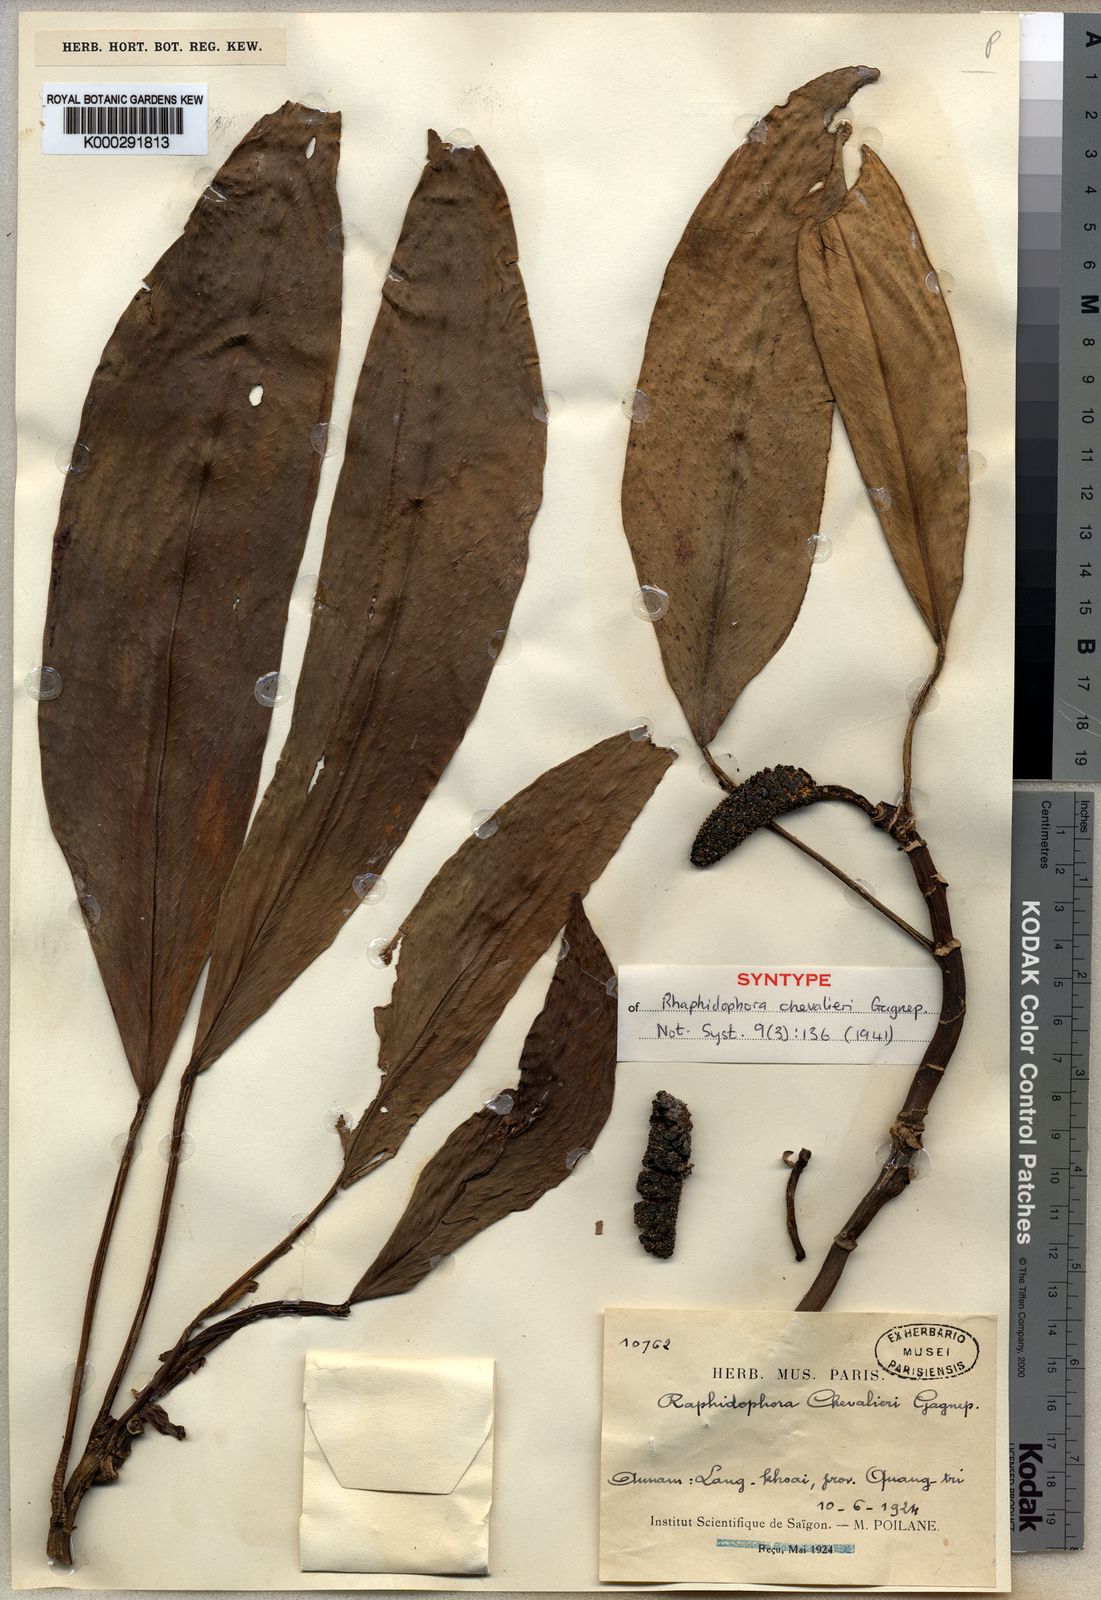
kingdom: Plantae
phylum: Tracheophyta
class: Liliopsida
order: Alismatales
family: Araceae
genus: Rhaphidophora
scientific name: Rhaphidophora chevalieri
